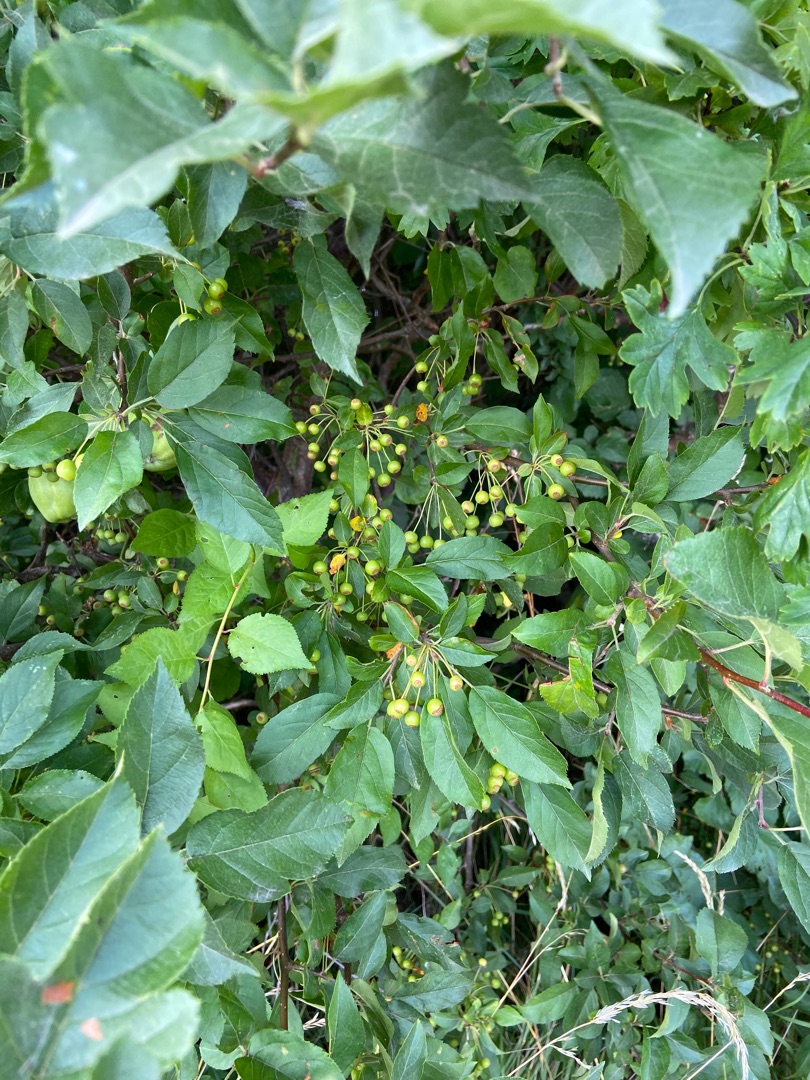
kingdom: Plantae
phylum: Tracheophyta
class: Magnoliopsida
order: Rosales
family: Rosaceae
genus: Malus
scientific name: Malus toringo
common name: Sargents-æble
